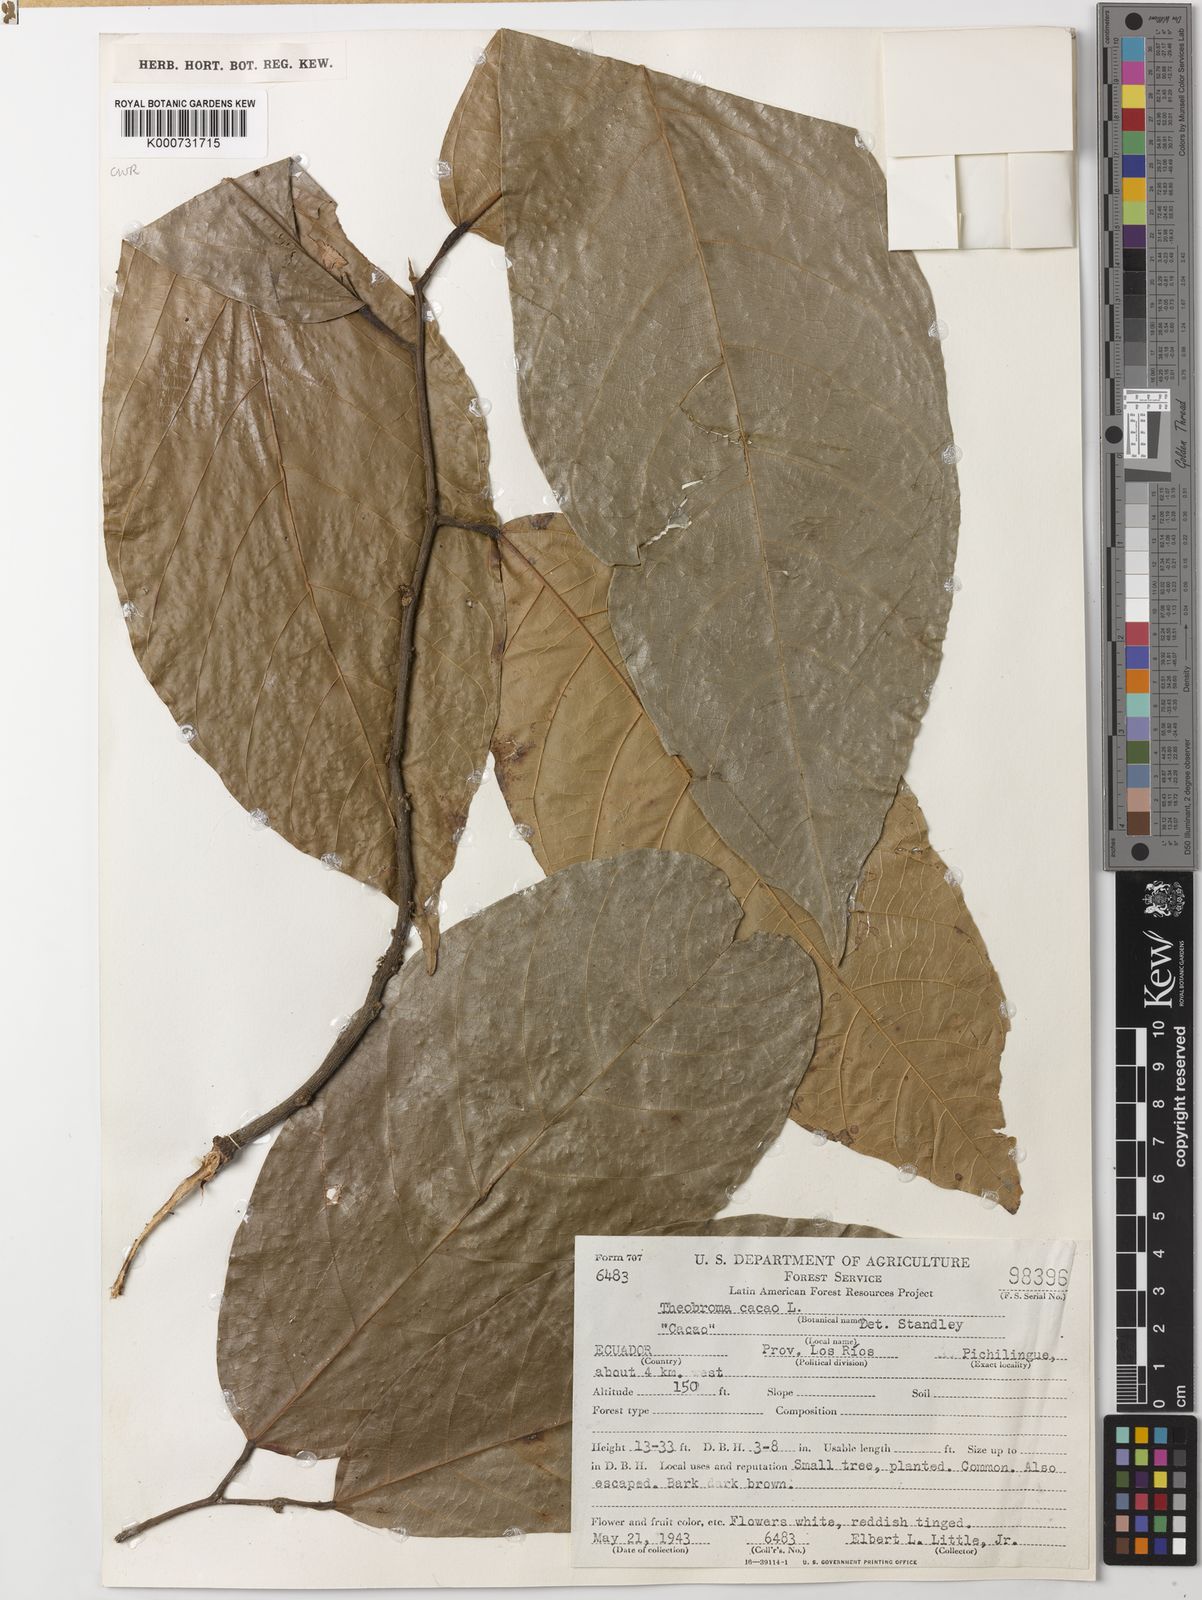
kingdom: Plantae
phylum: Tracheophyta
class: Magnoliopsida
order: Malvales
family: Malvaceae
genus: Theobroma
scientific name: Theobroma cacao
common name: Cocoa
